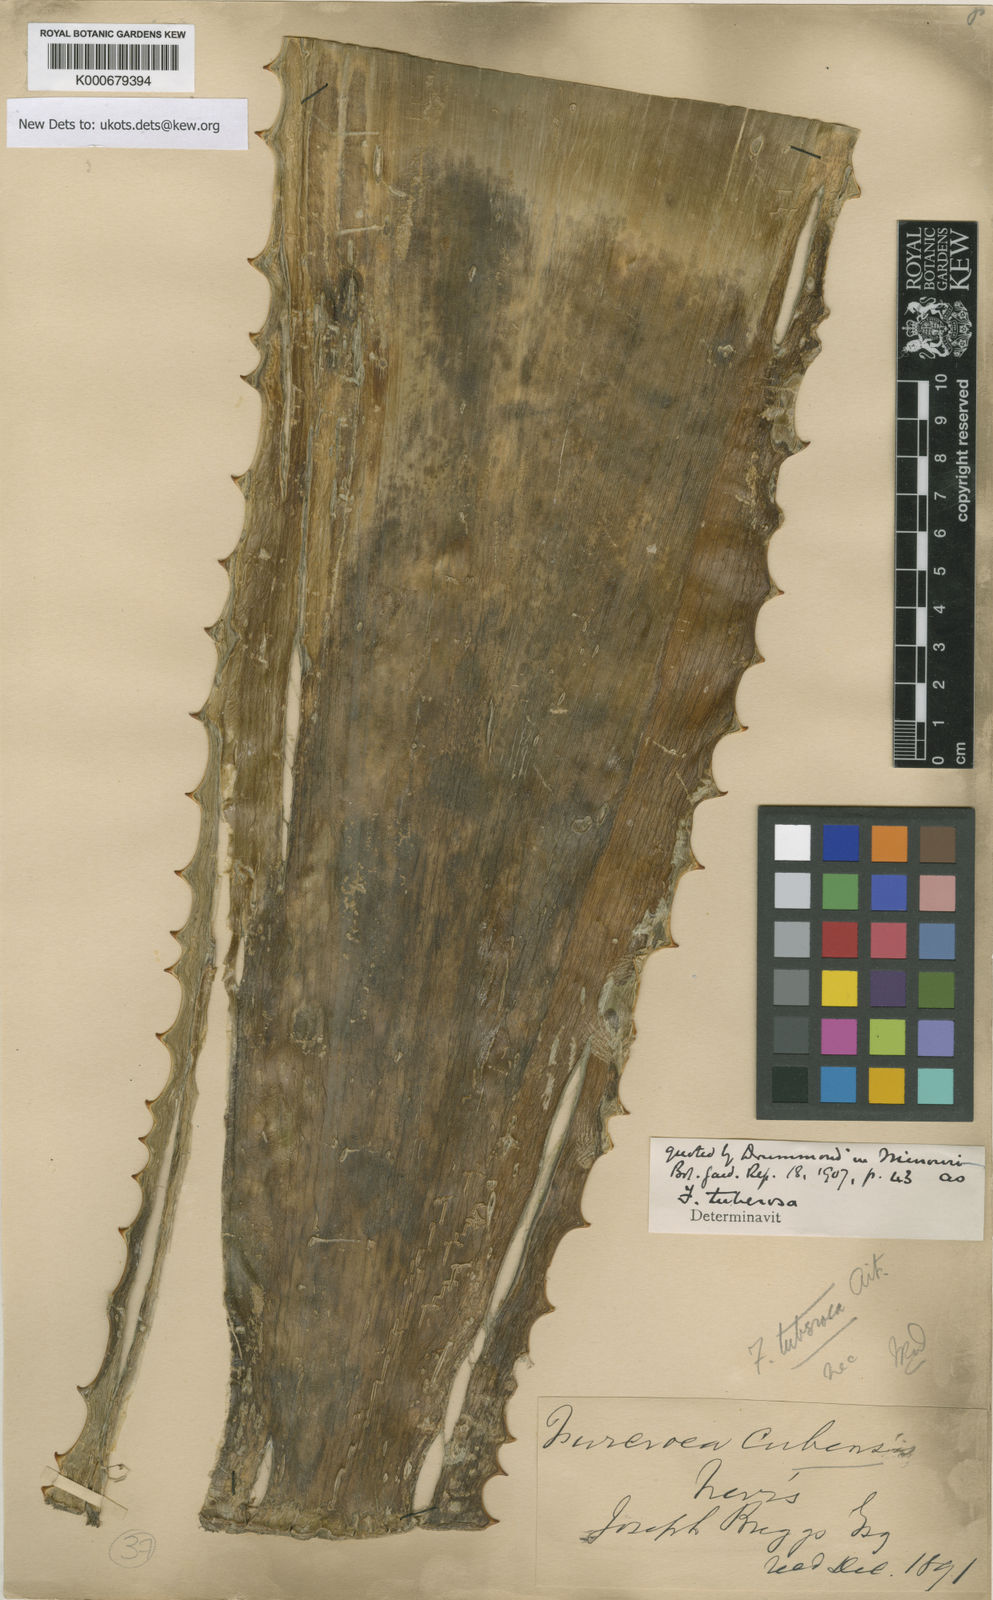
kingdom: Plantae
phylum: Tracheophyta
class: Liliopsida
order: Asparagales
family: Asparagaceae
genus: Furcraea
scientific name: Furcraea tuberosa
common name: Karata
